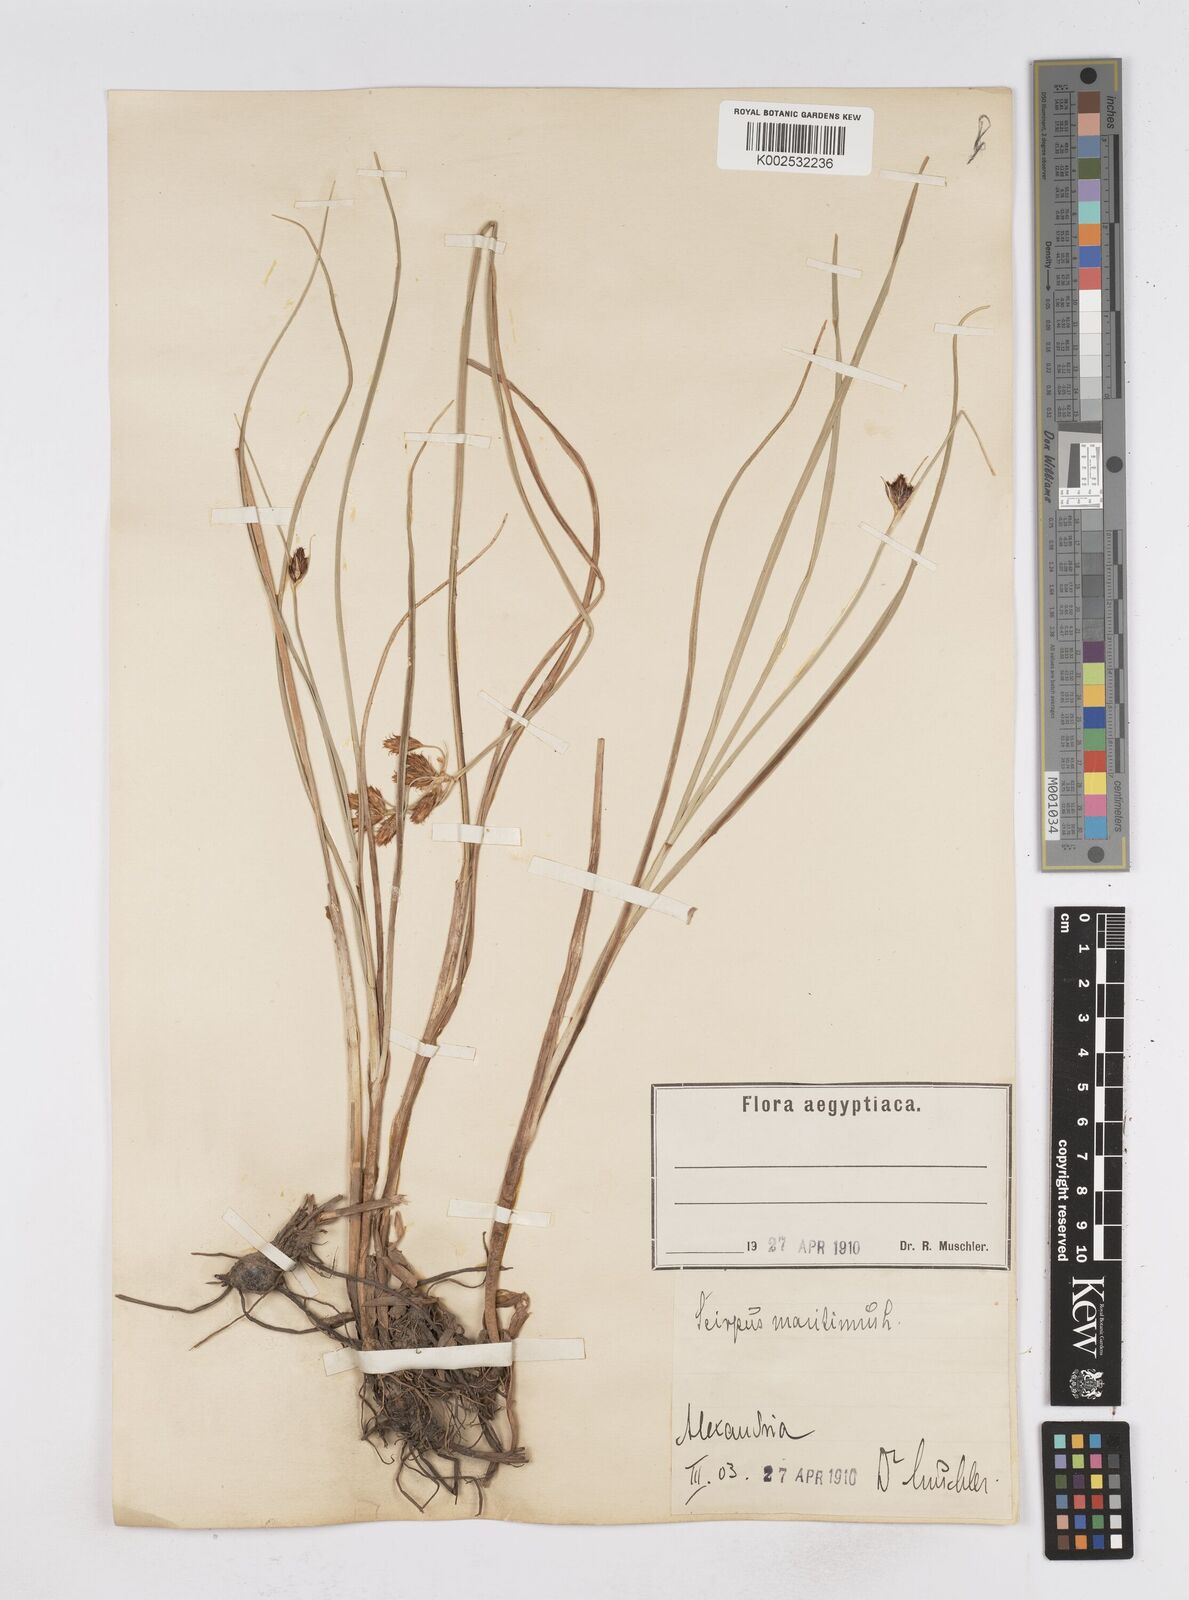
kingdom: Plantae
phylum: Tracheophyta
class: Liliopsida
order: Poales
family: Cyperaceae
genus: Bolboschoenus
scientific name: Bolboschoenus maritimus
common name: Sea club-rush
